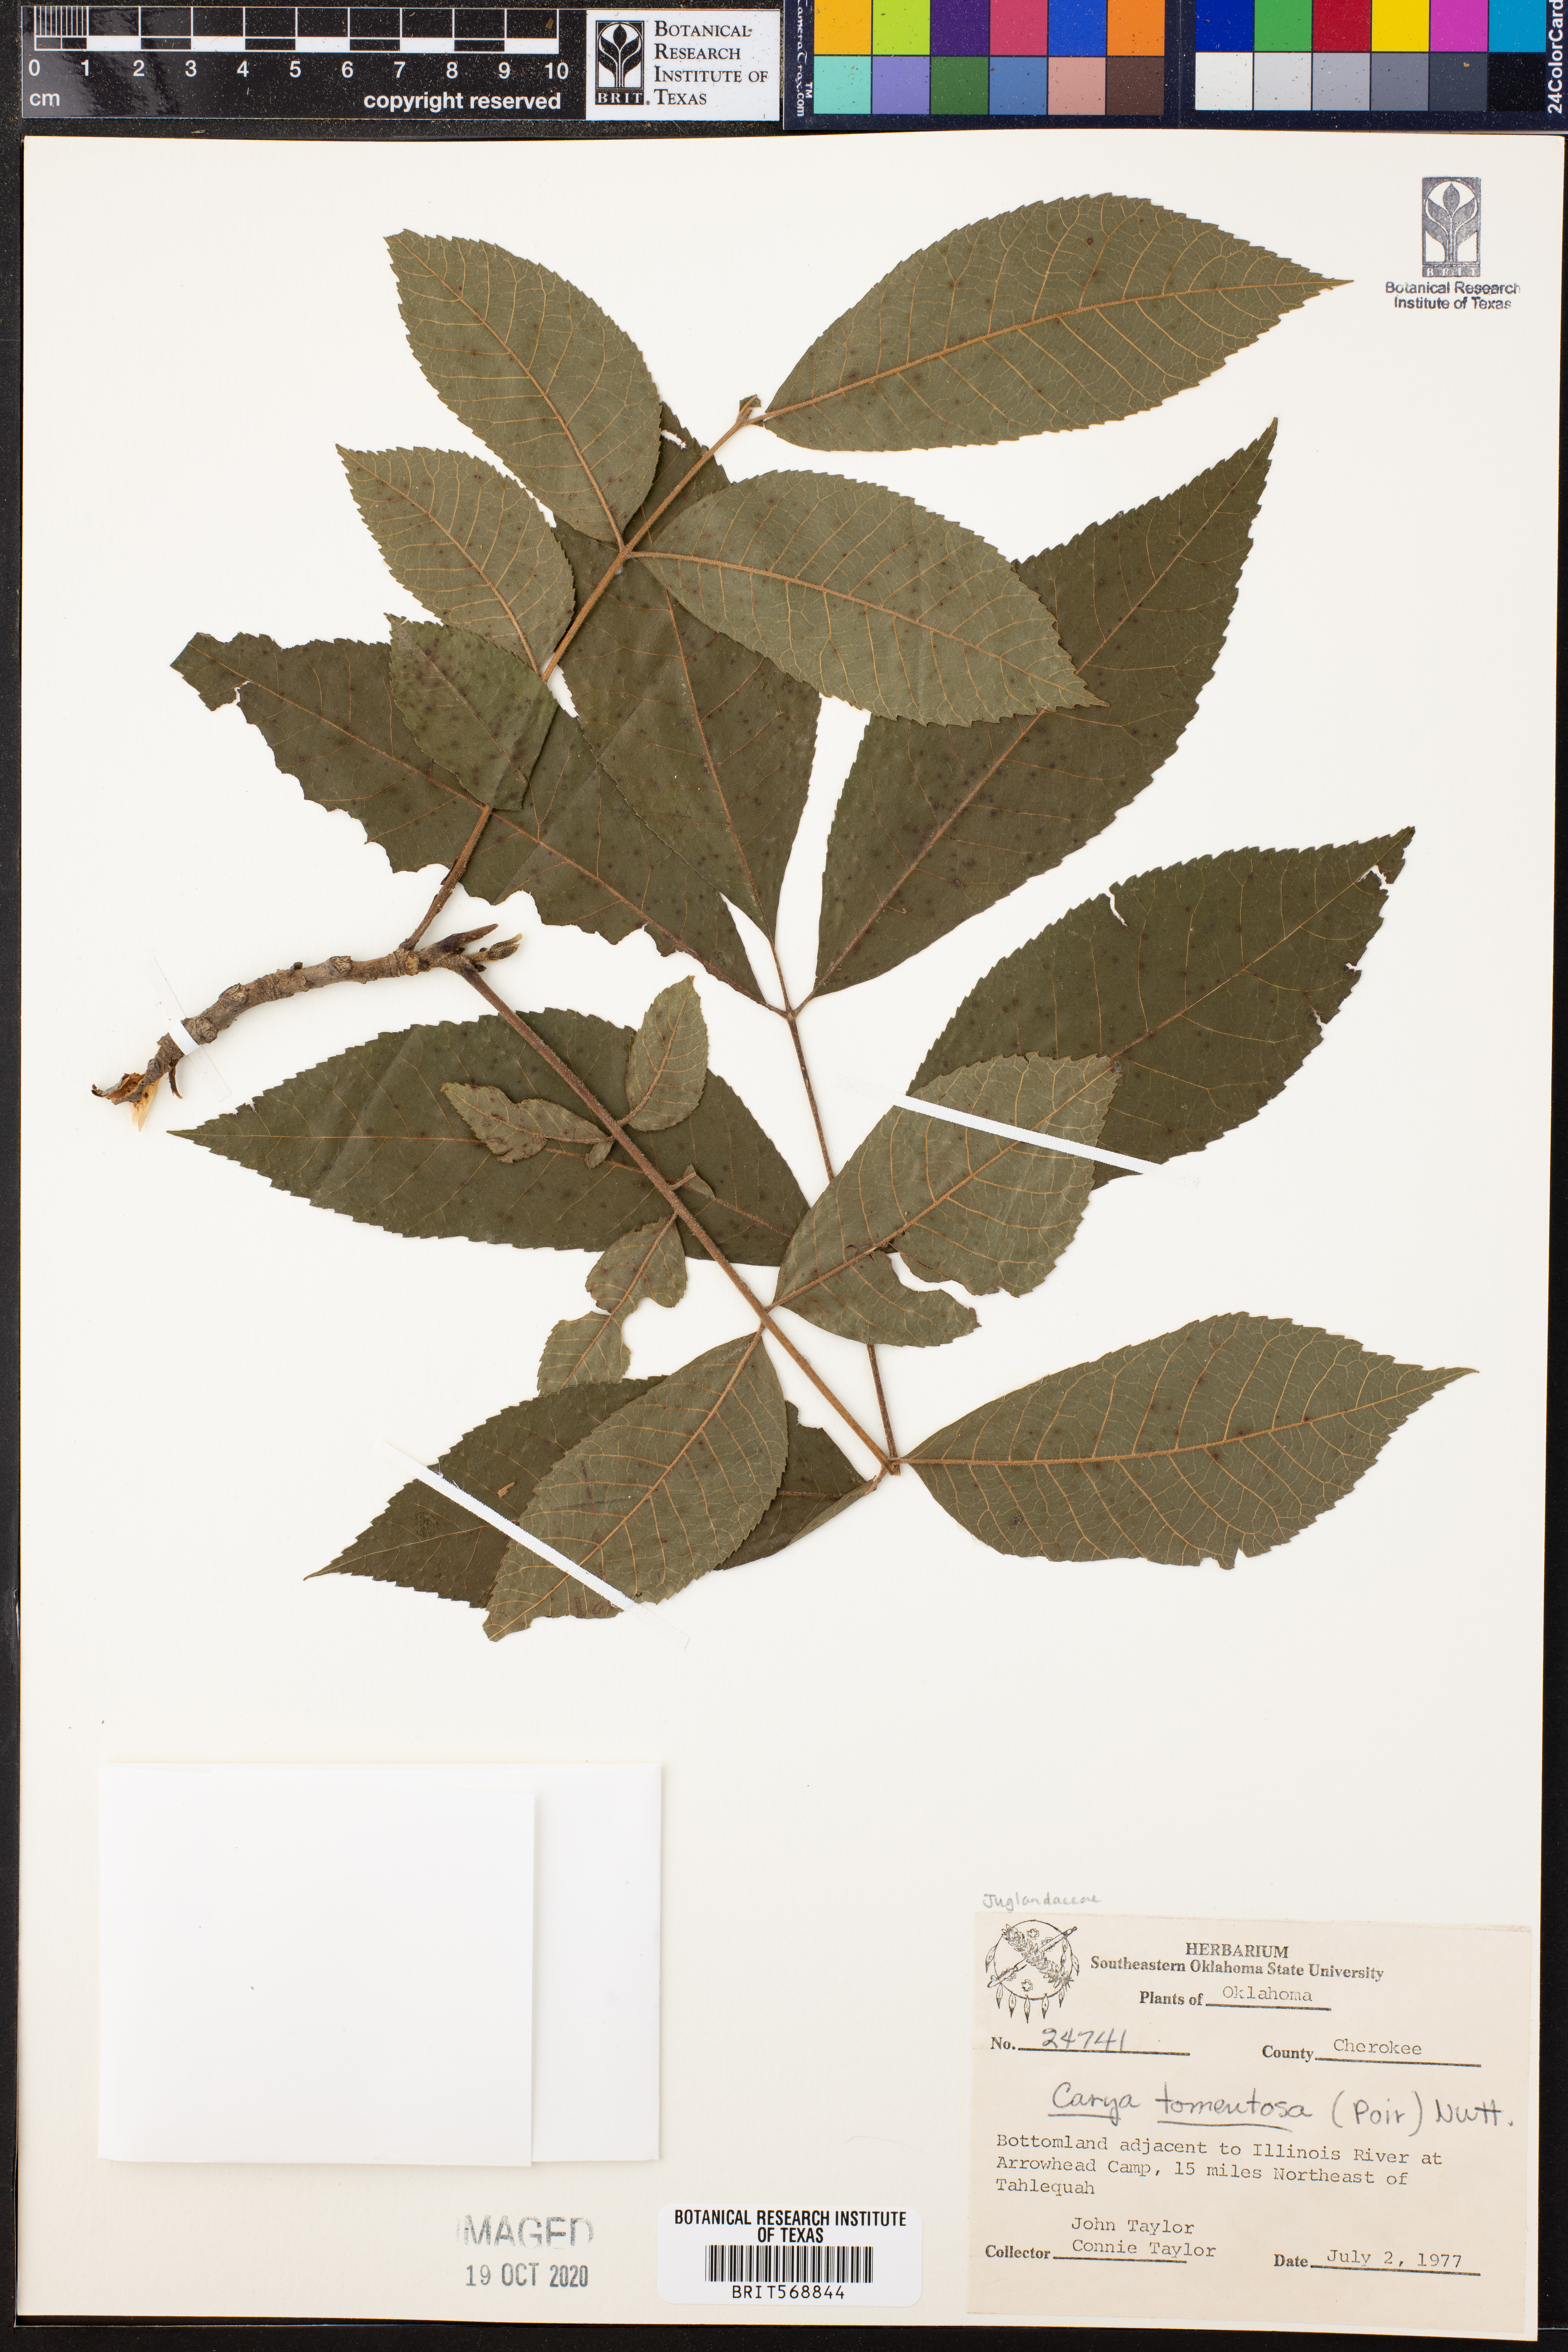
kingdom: Plantae
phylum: Tracheophyta
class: Magnoliopsida
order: Fagales
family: Juglandaceae
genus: Carya
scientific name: Carya alba
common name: Mockernut hickory
